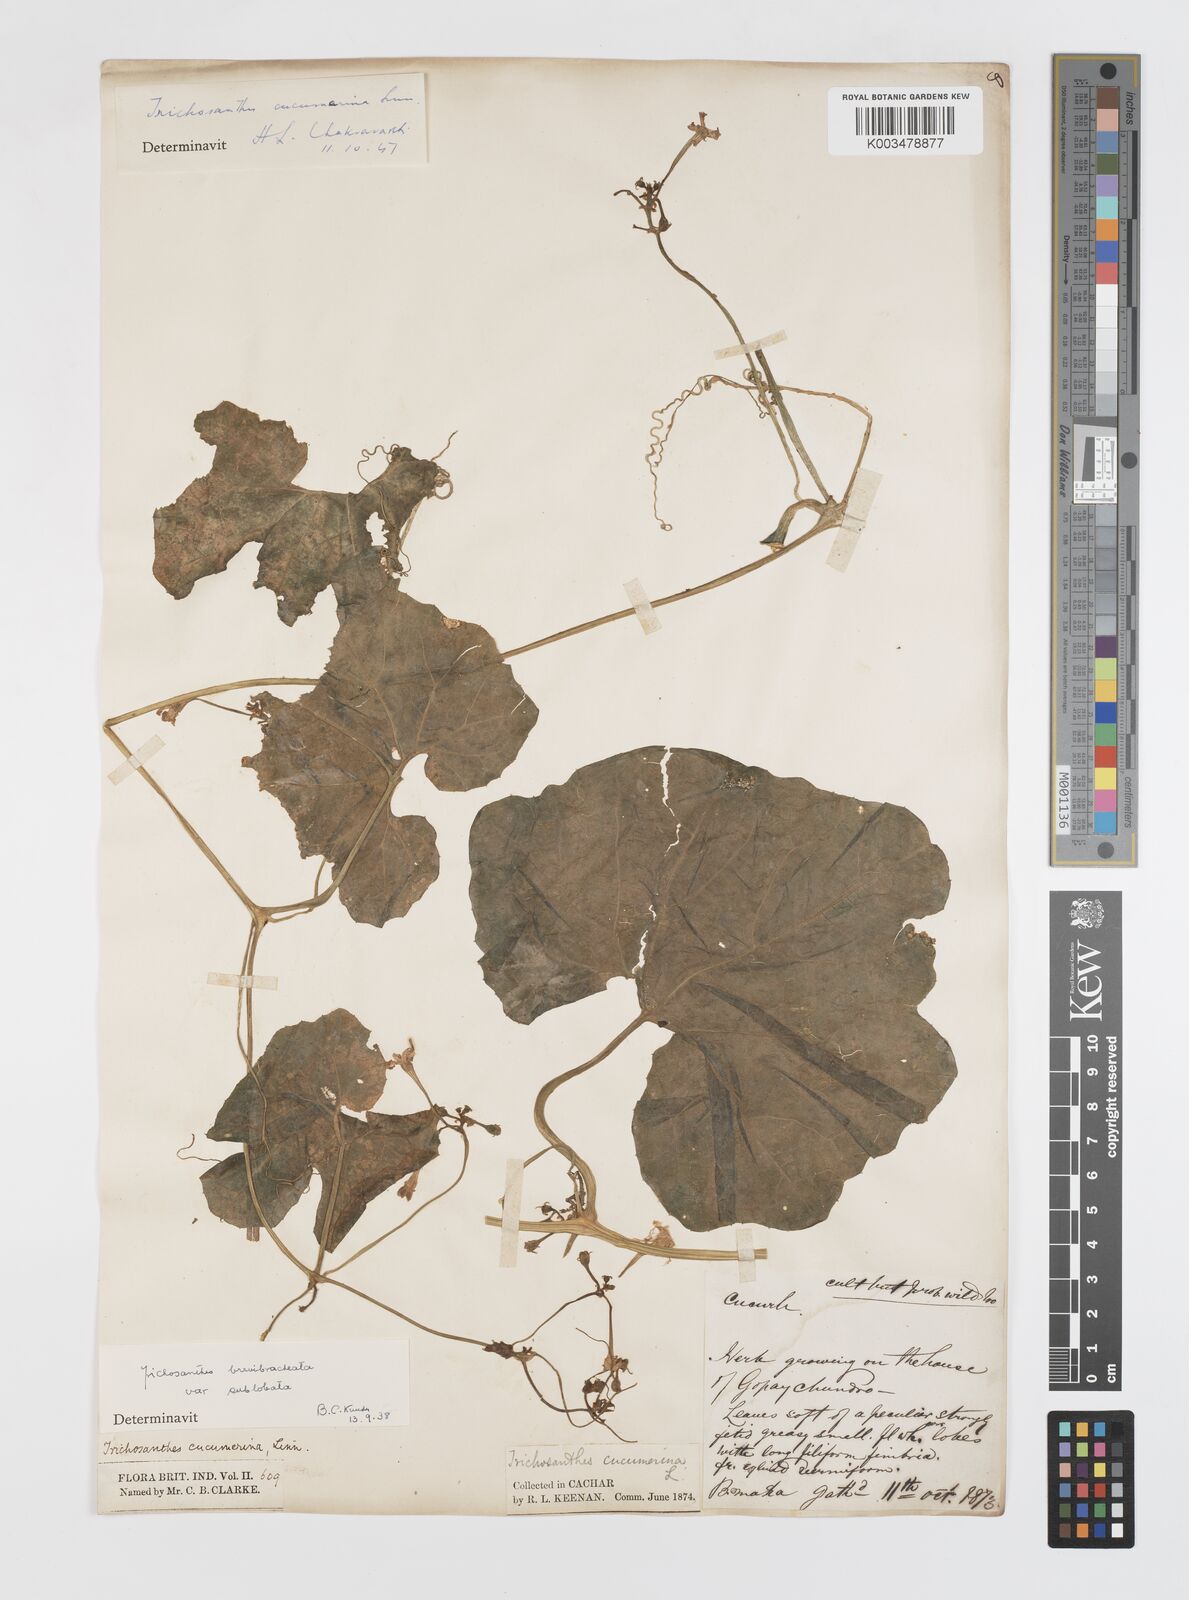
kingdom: Plantae
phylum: Tracheophyta
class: Magnoliopsida
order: Cucurbitales
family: Cucurbitaceae
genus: Trichosanthes
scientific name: Trichosanthes cucumerina
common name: Snakegourd
